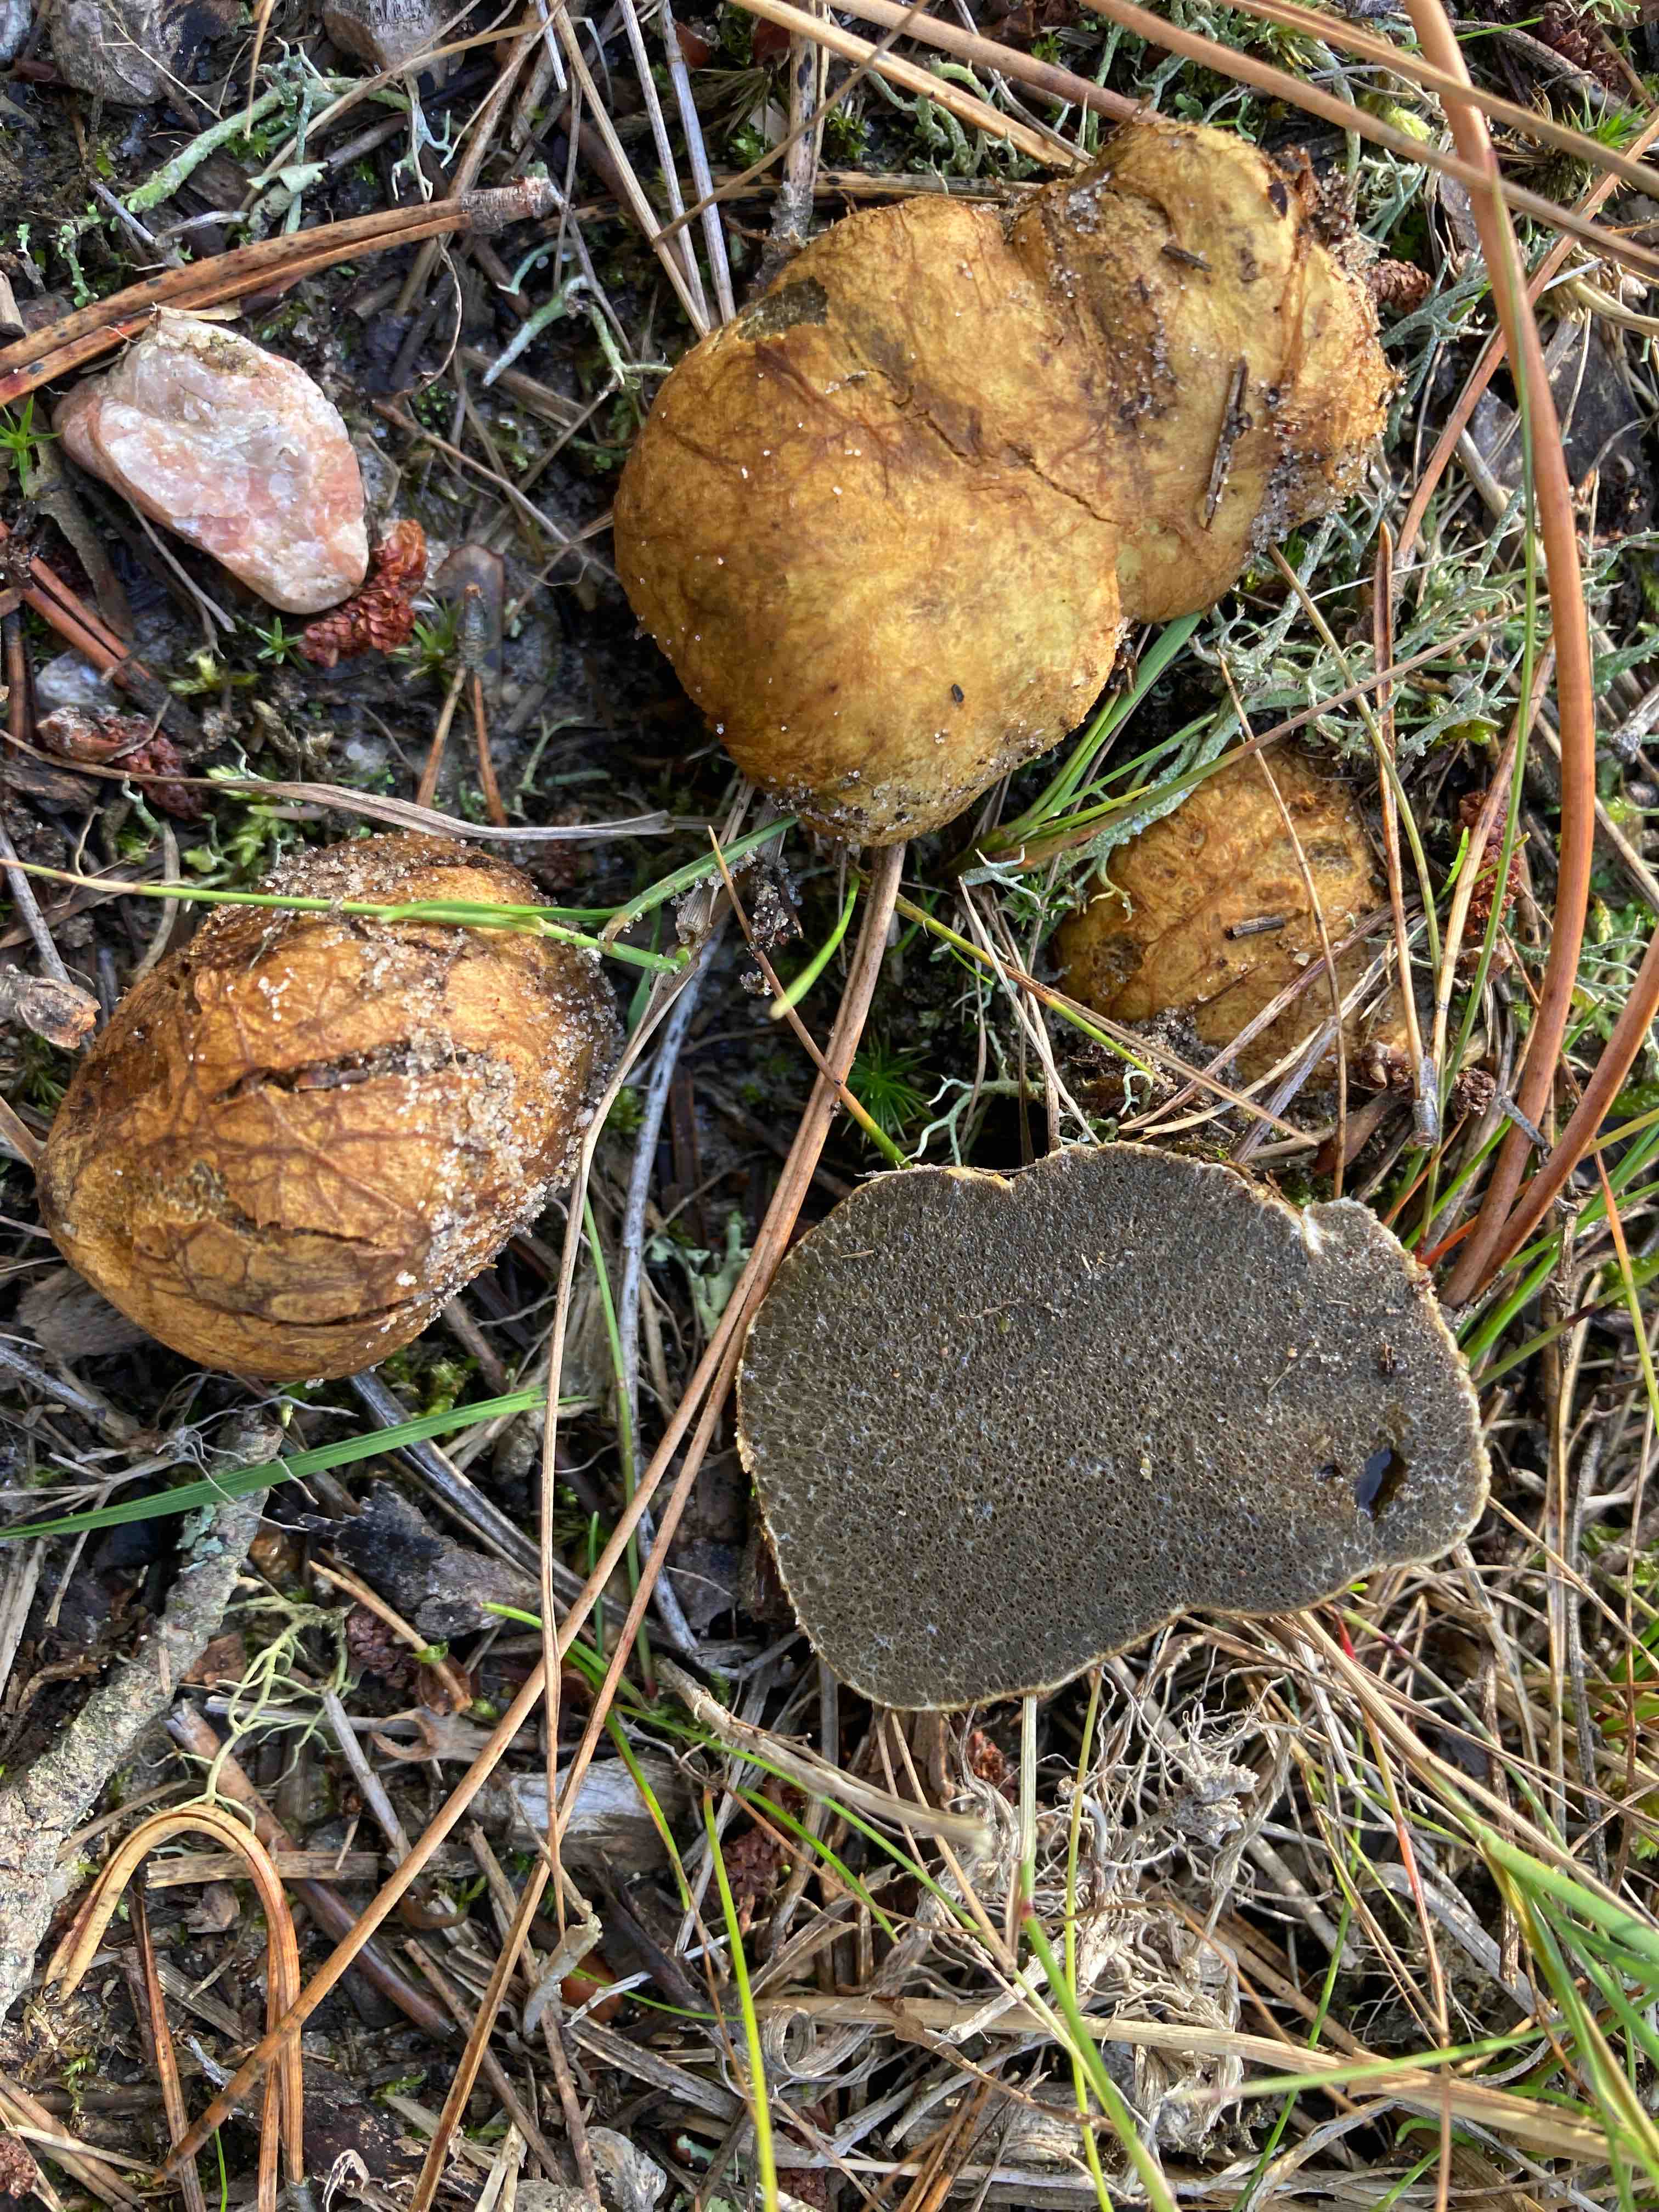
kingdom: Fungi
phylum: Basidiomycota
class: Agaricomycetes
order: Boletales
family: Rhizopogonaceae
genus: Rhizopogon
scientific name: Rhizopogon obtextus
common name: gul skægtrøffel
